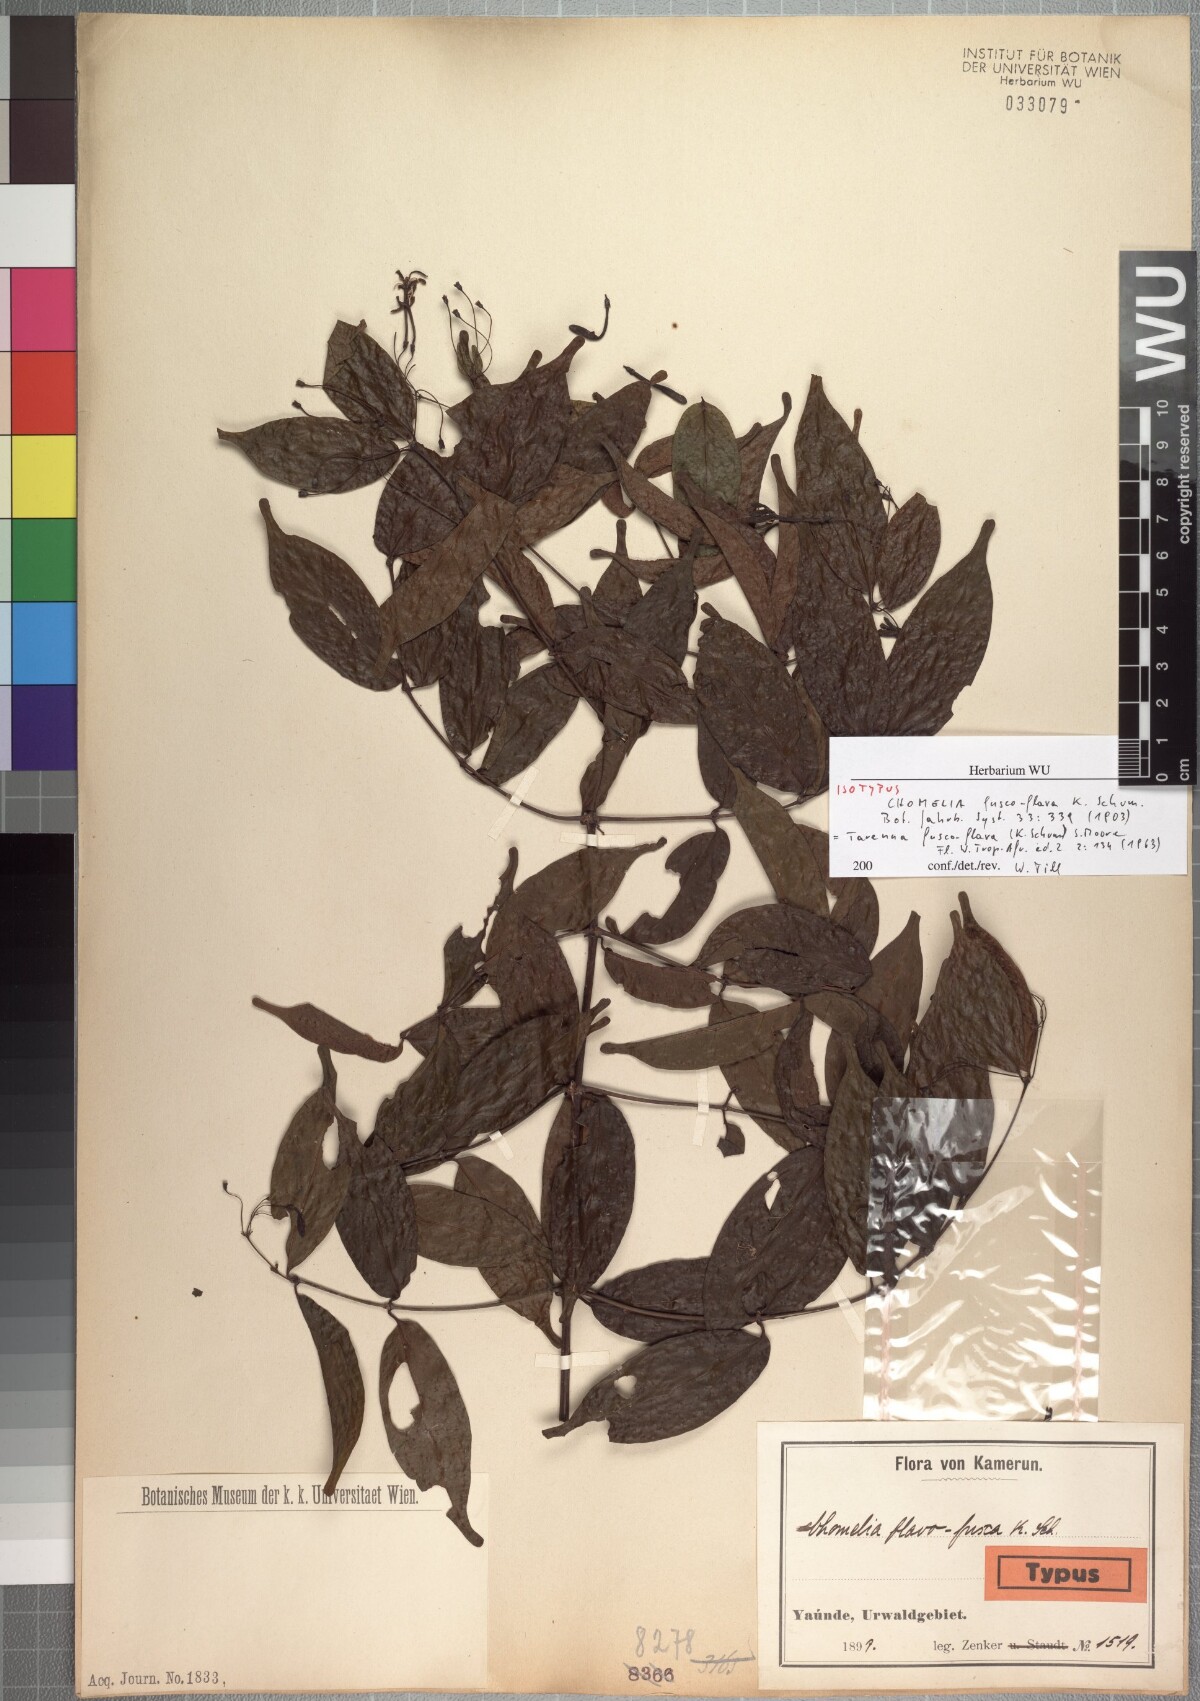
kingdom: Plantae
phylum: Tracheophyta
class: Magnoliopsida
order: Gentianales
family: Rubiaceae
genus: Tarenna
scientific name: Tarenna fuscoflava
